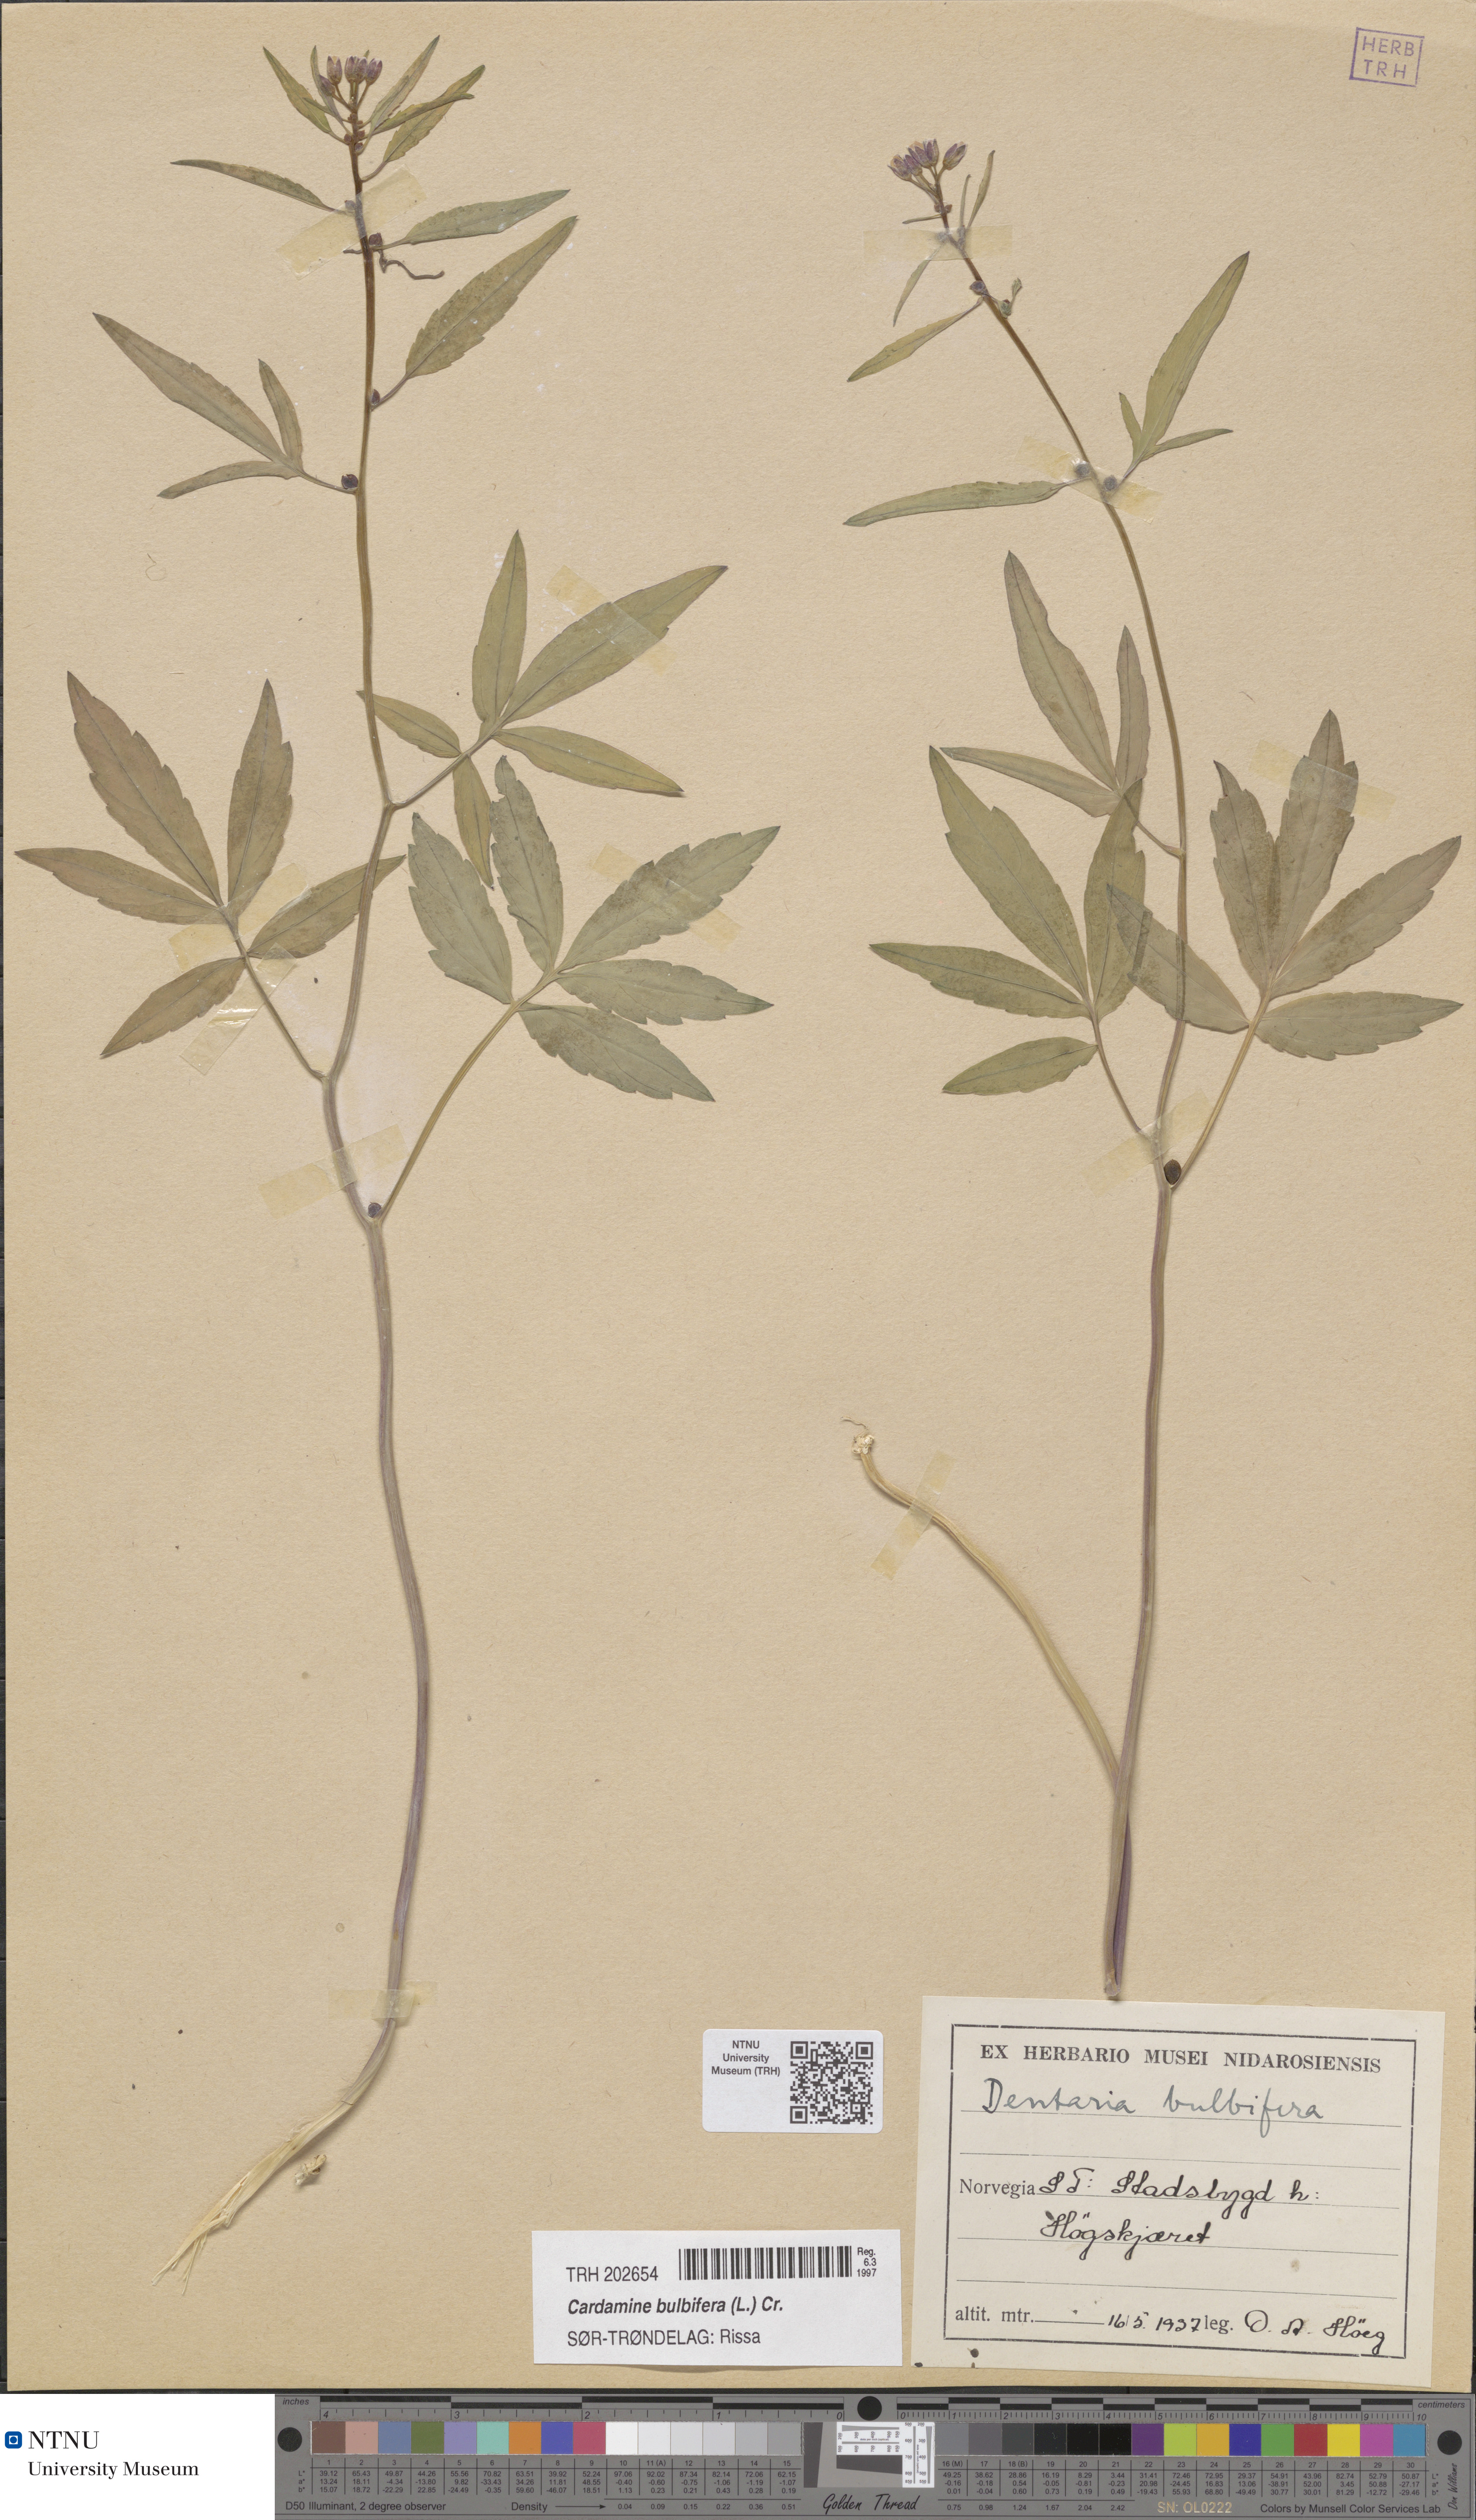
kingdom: Plantae
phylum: Tracheophyta
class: Magnoliopsida
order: Brassicales
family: Brassicaceae
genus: Cardamine
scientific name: Cardamine bulbifera
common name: Coralroot bittercress
